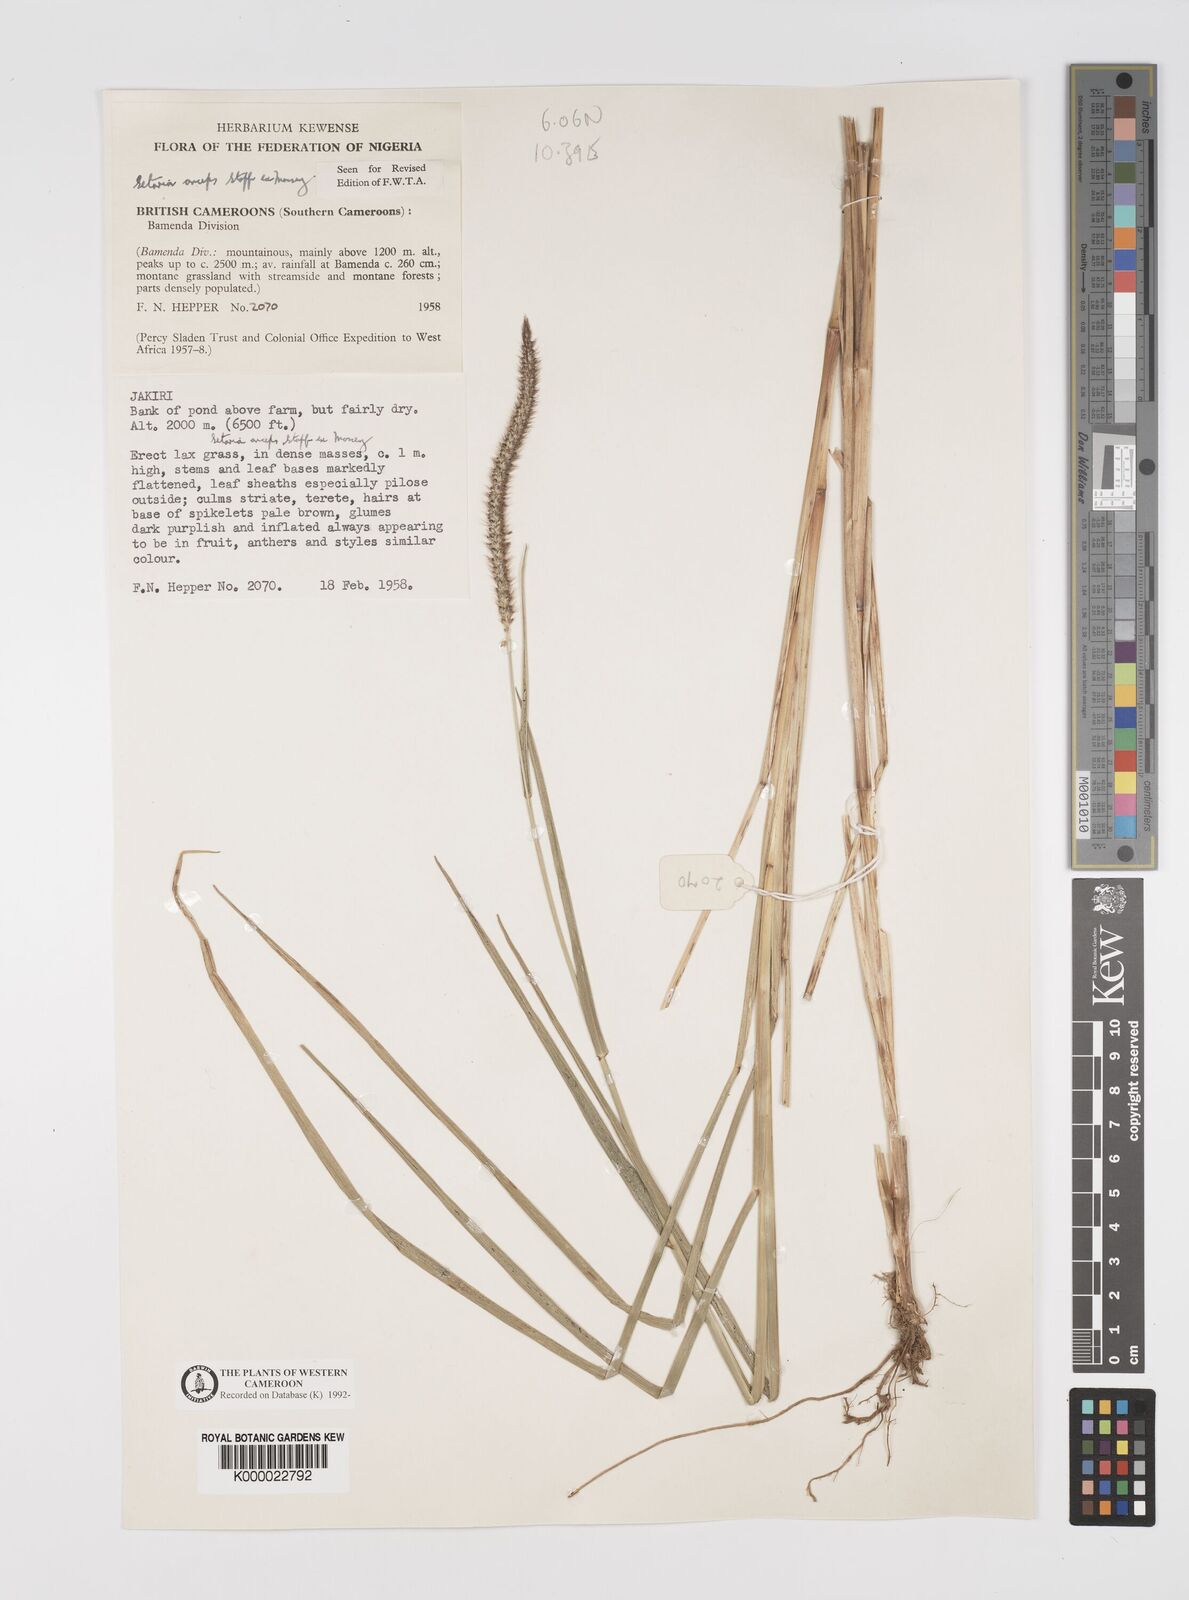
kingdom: Plantae
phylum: Tracheophyta
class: Liliopsida
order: Poales
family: Poaceae
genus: Setaria
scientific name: Setaria sphacelata
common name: African bristlegrass
